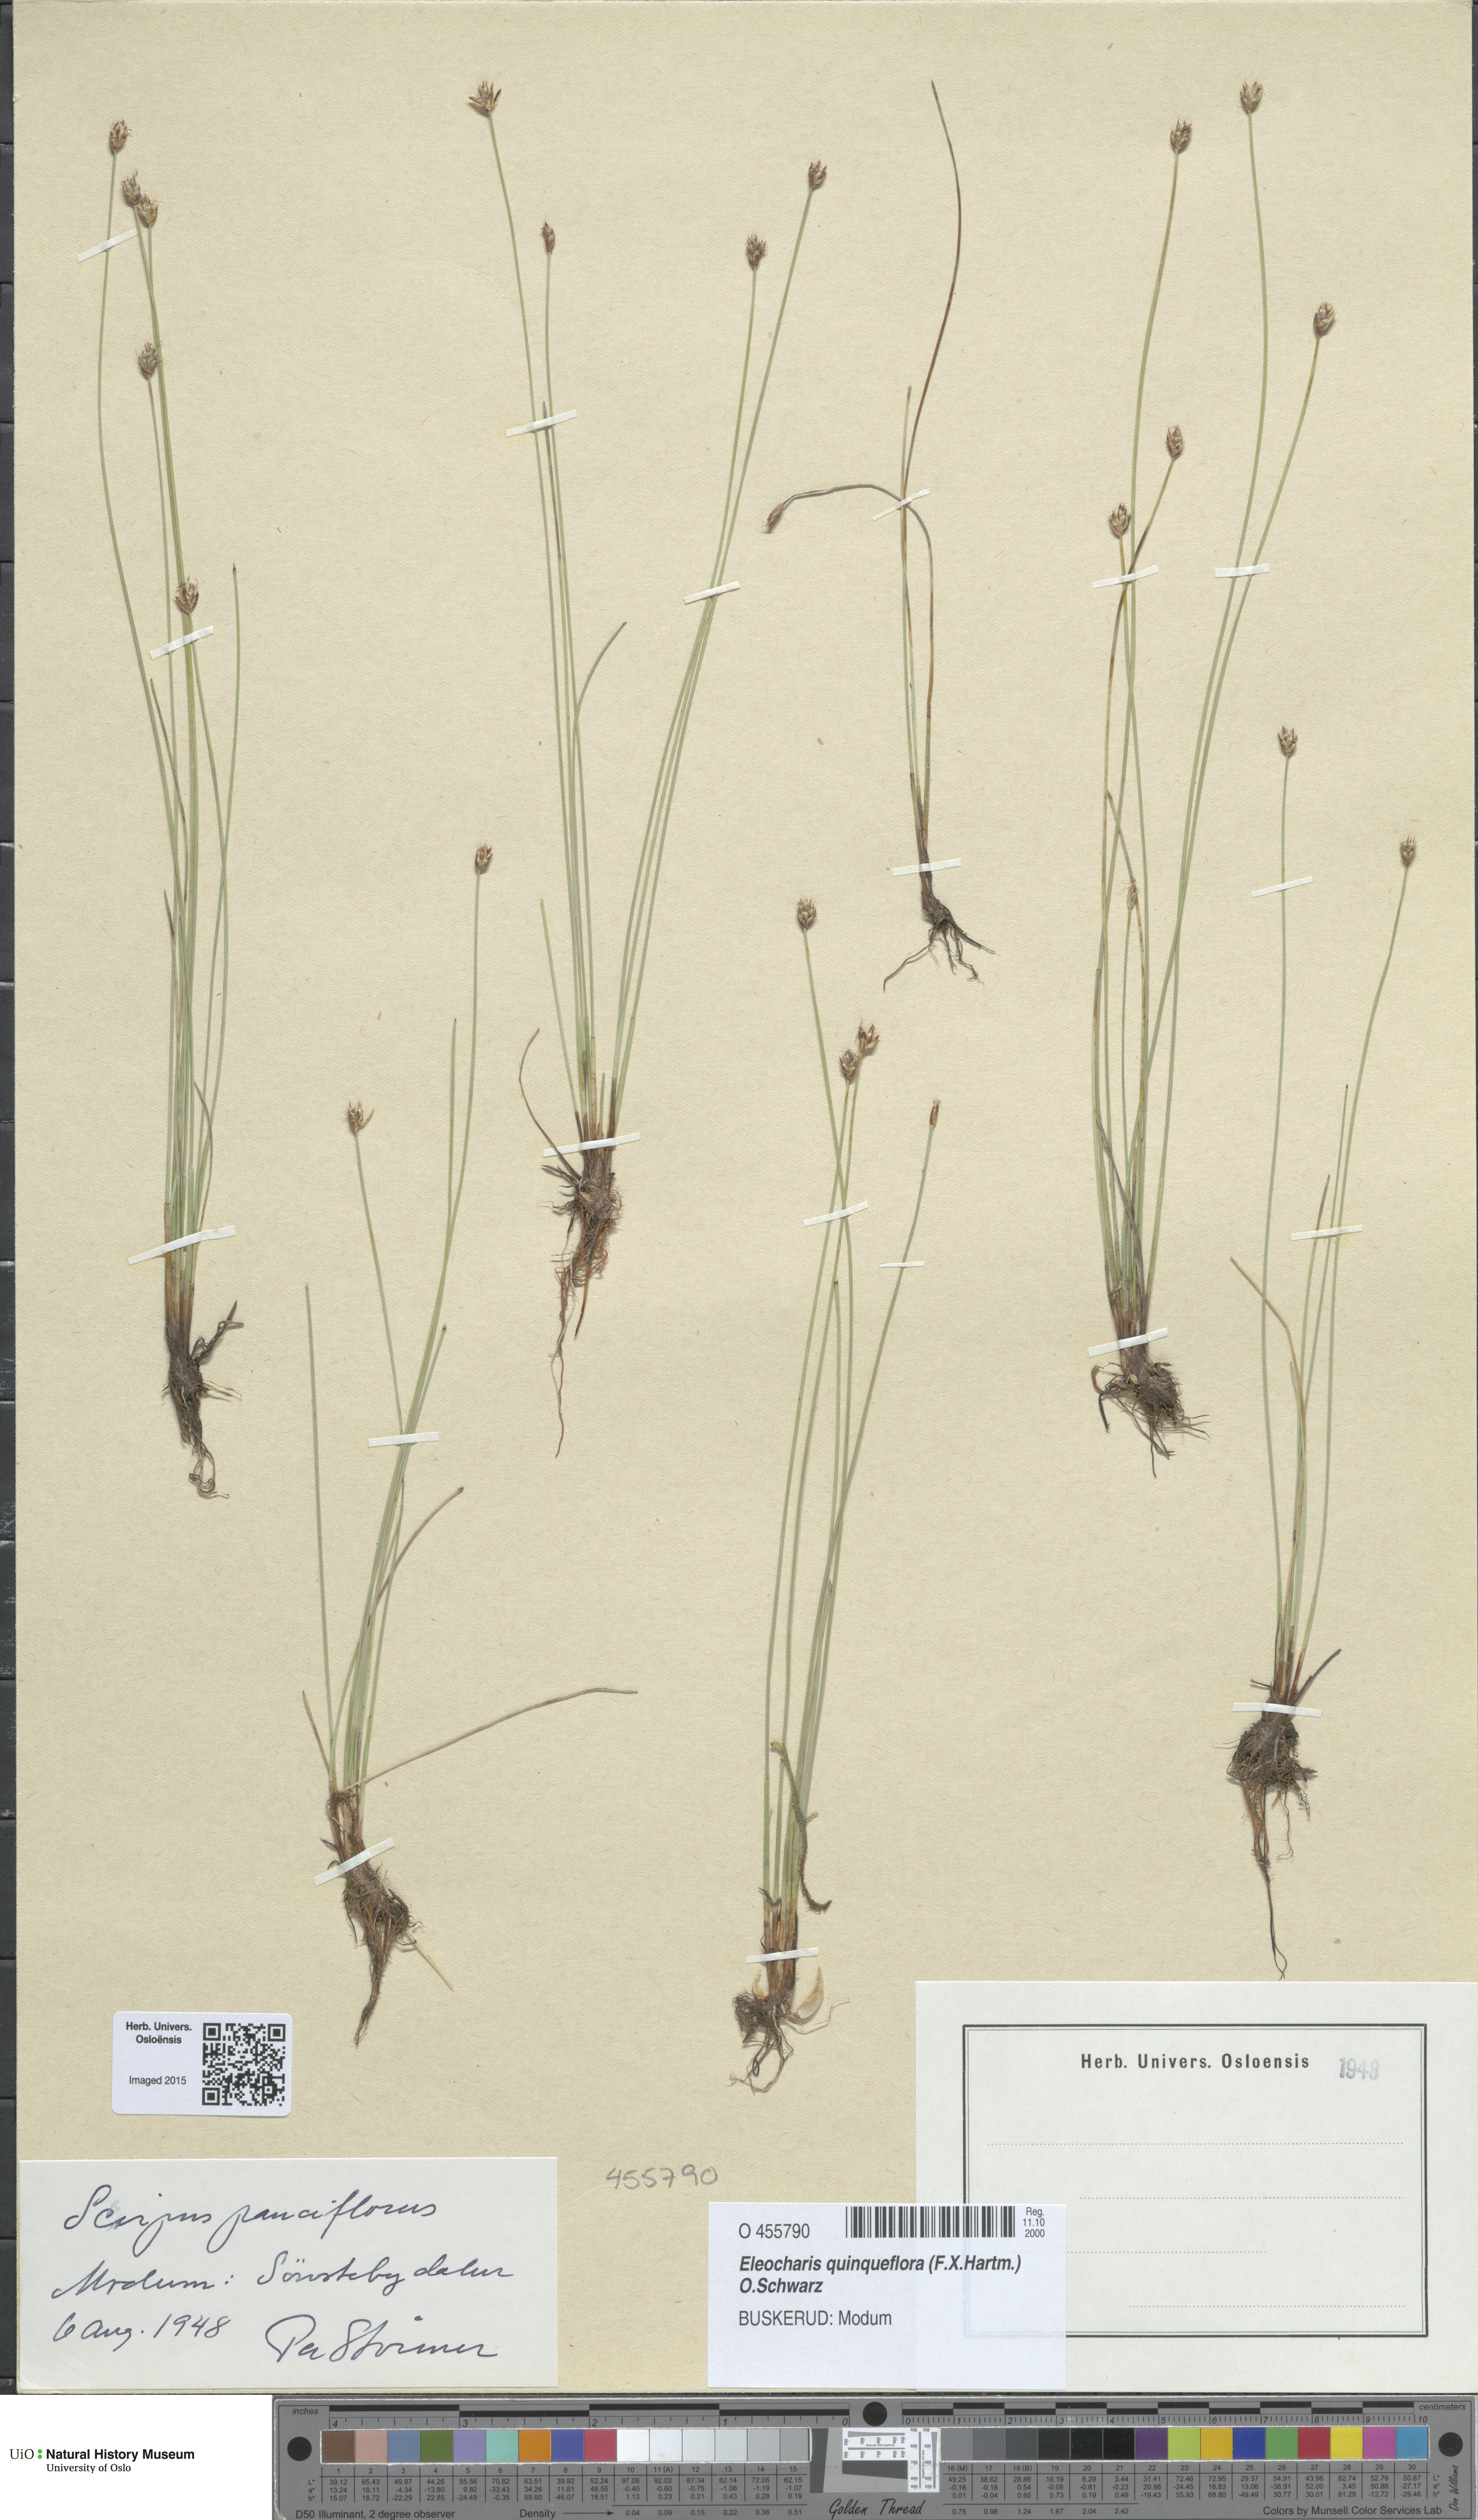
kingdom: Plantae
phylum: Tracheophyta
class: Liliopsida
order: Poales
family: Cyperaceae
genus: Eleocharis
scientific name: Eleocharis quinqueflora
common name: Few-flowered spike-rush
